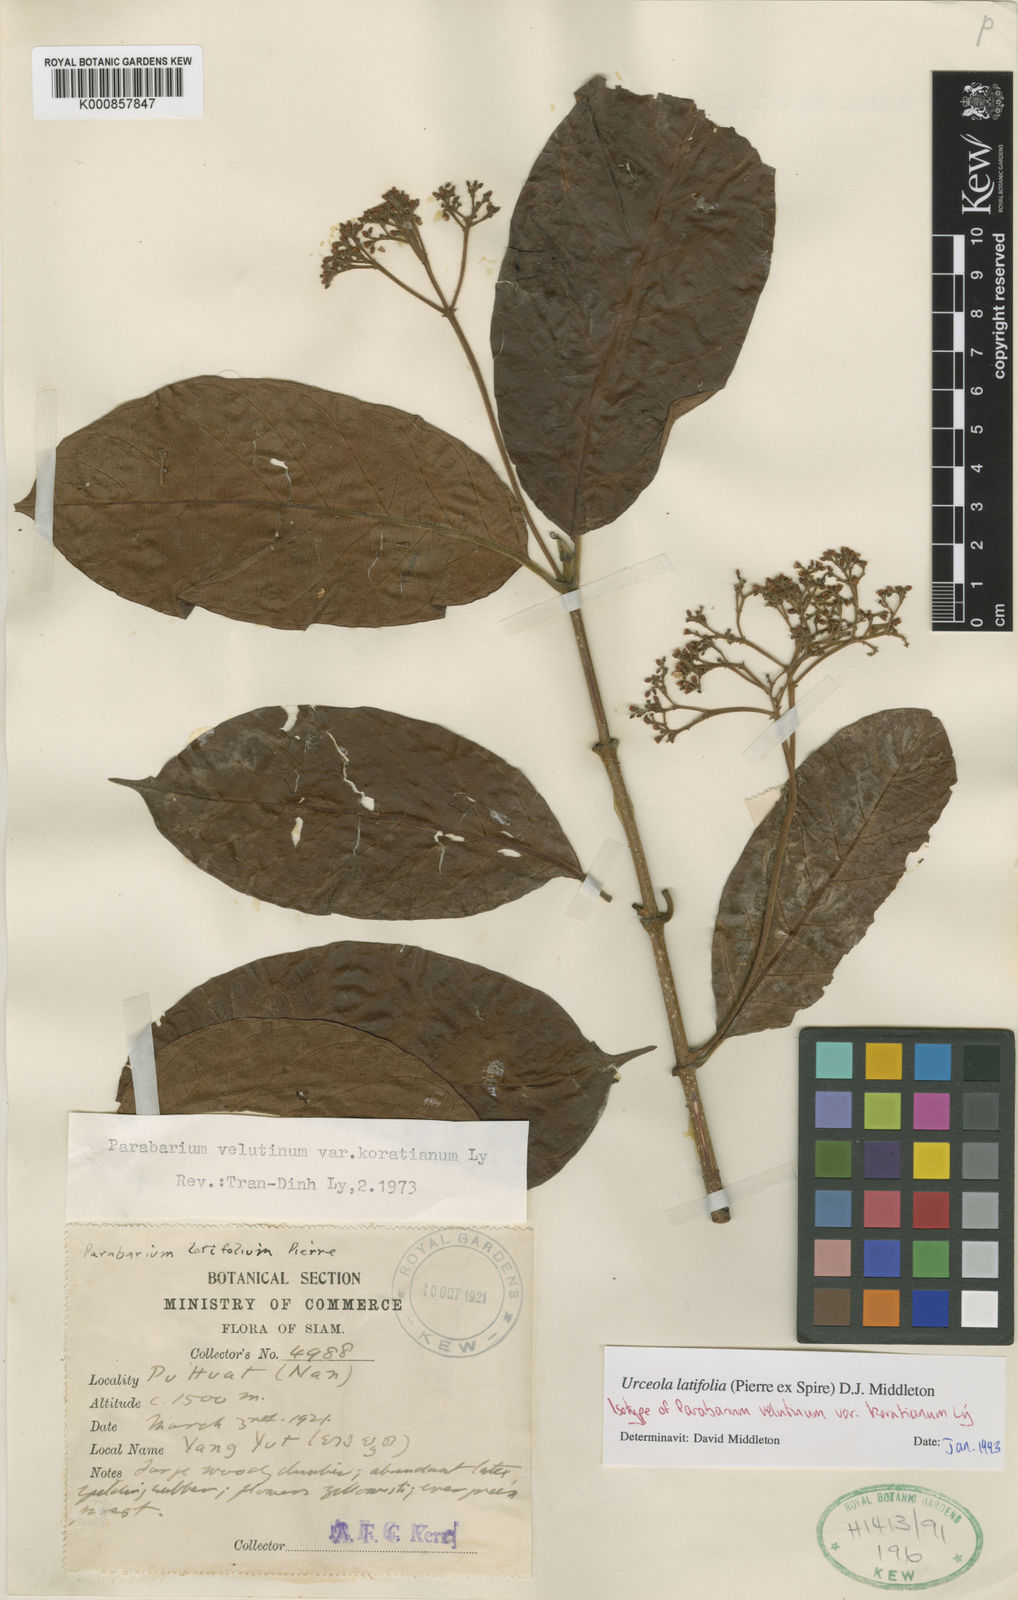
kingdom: Plantae
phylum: Tracheophyta
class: Magnoliopsida
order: Gentianales
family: Apocynaceae
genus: Urceola
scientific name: Urceola latifolia
